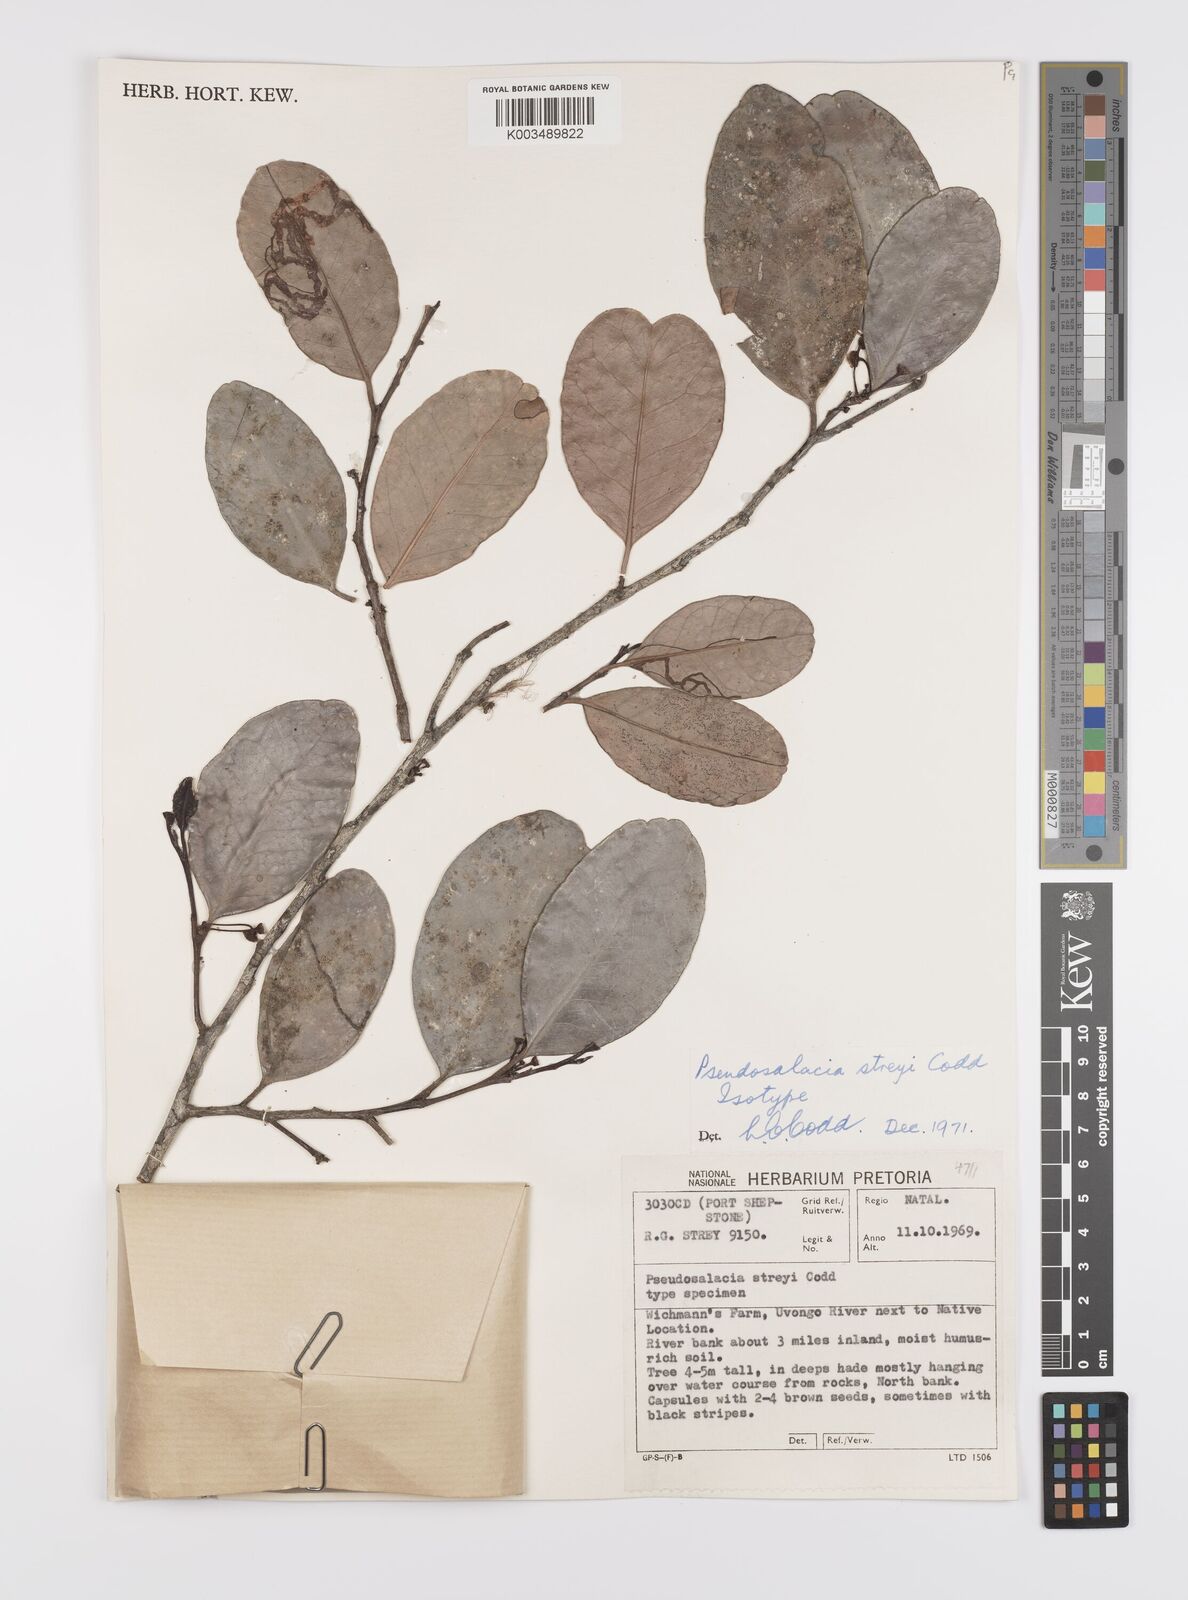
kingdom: Plantae
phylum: Tracheophyta
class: Magnoliopsida
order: Celastrales
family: Celastraceae
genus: Pseudosalacia
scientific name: Pseudosalacia streyi
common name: Bastard lemon
